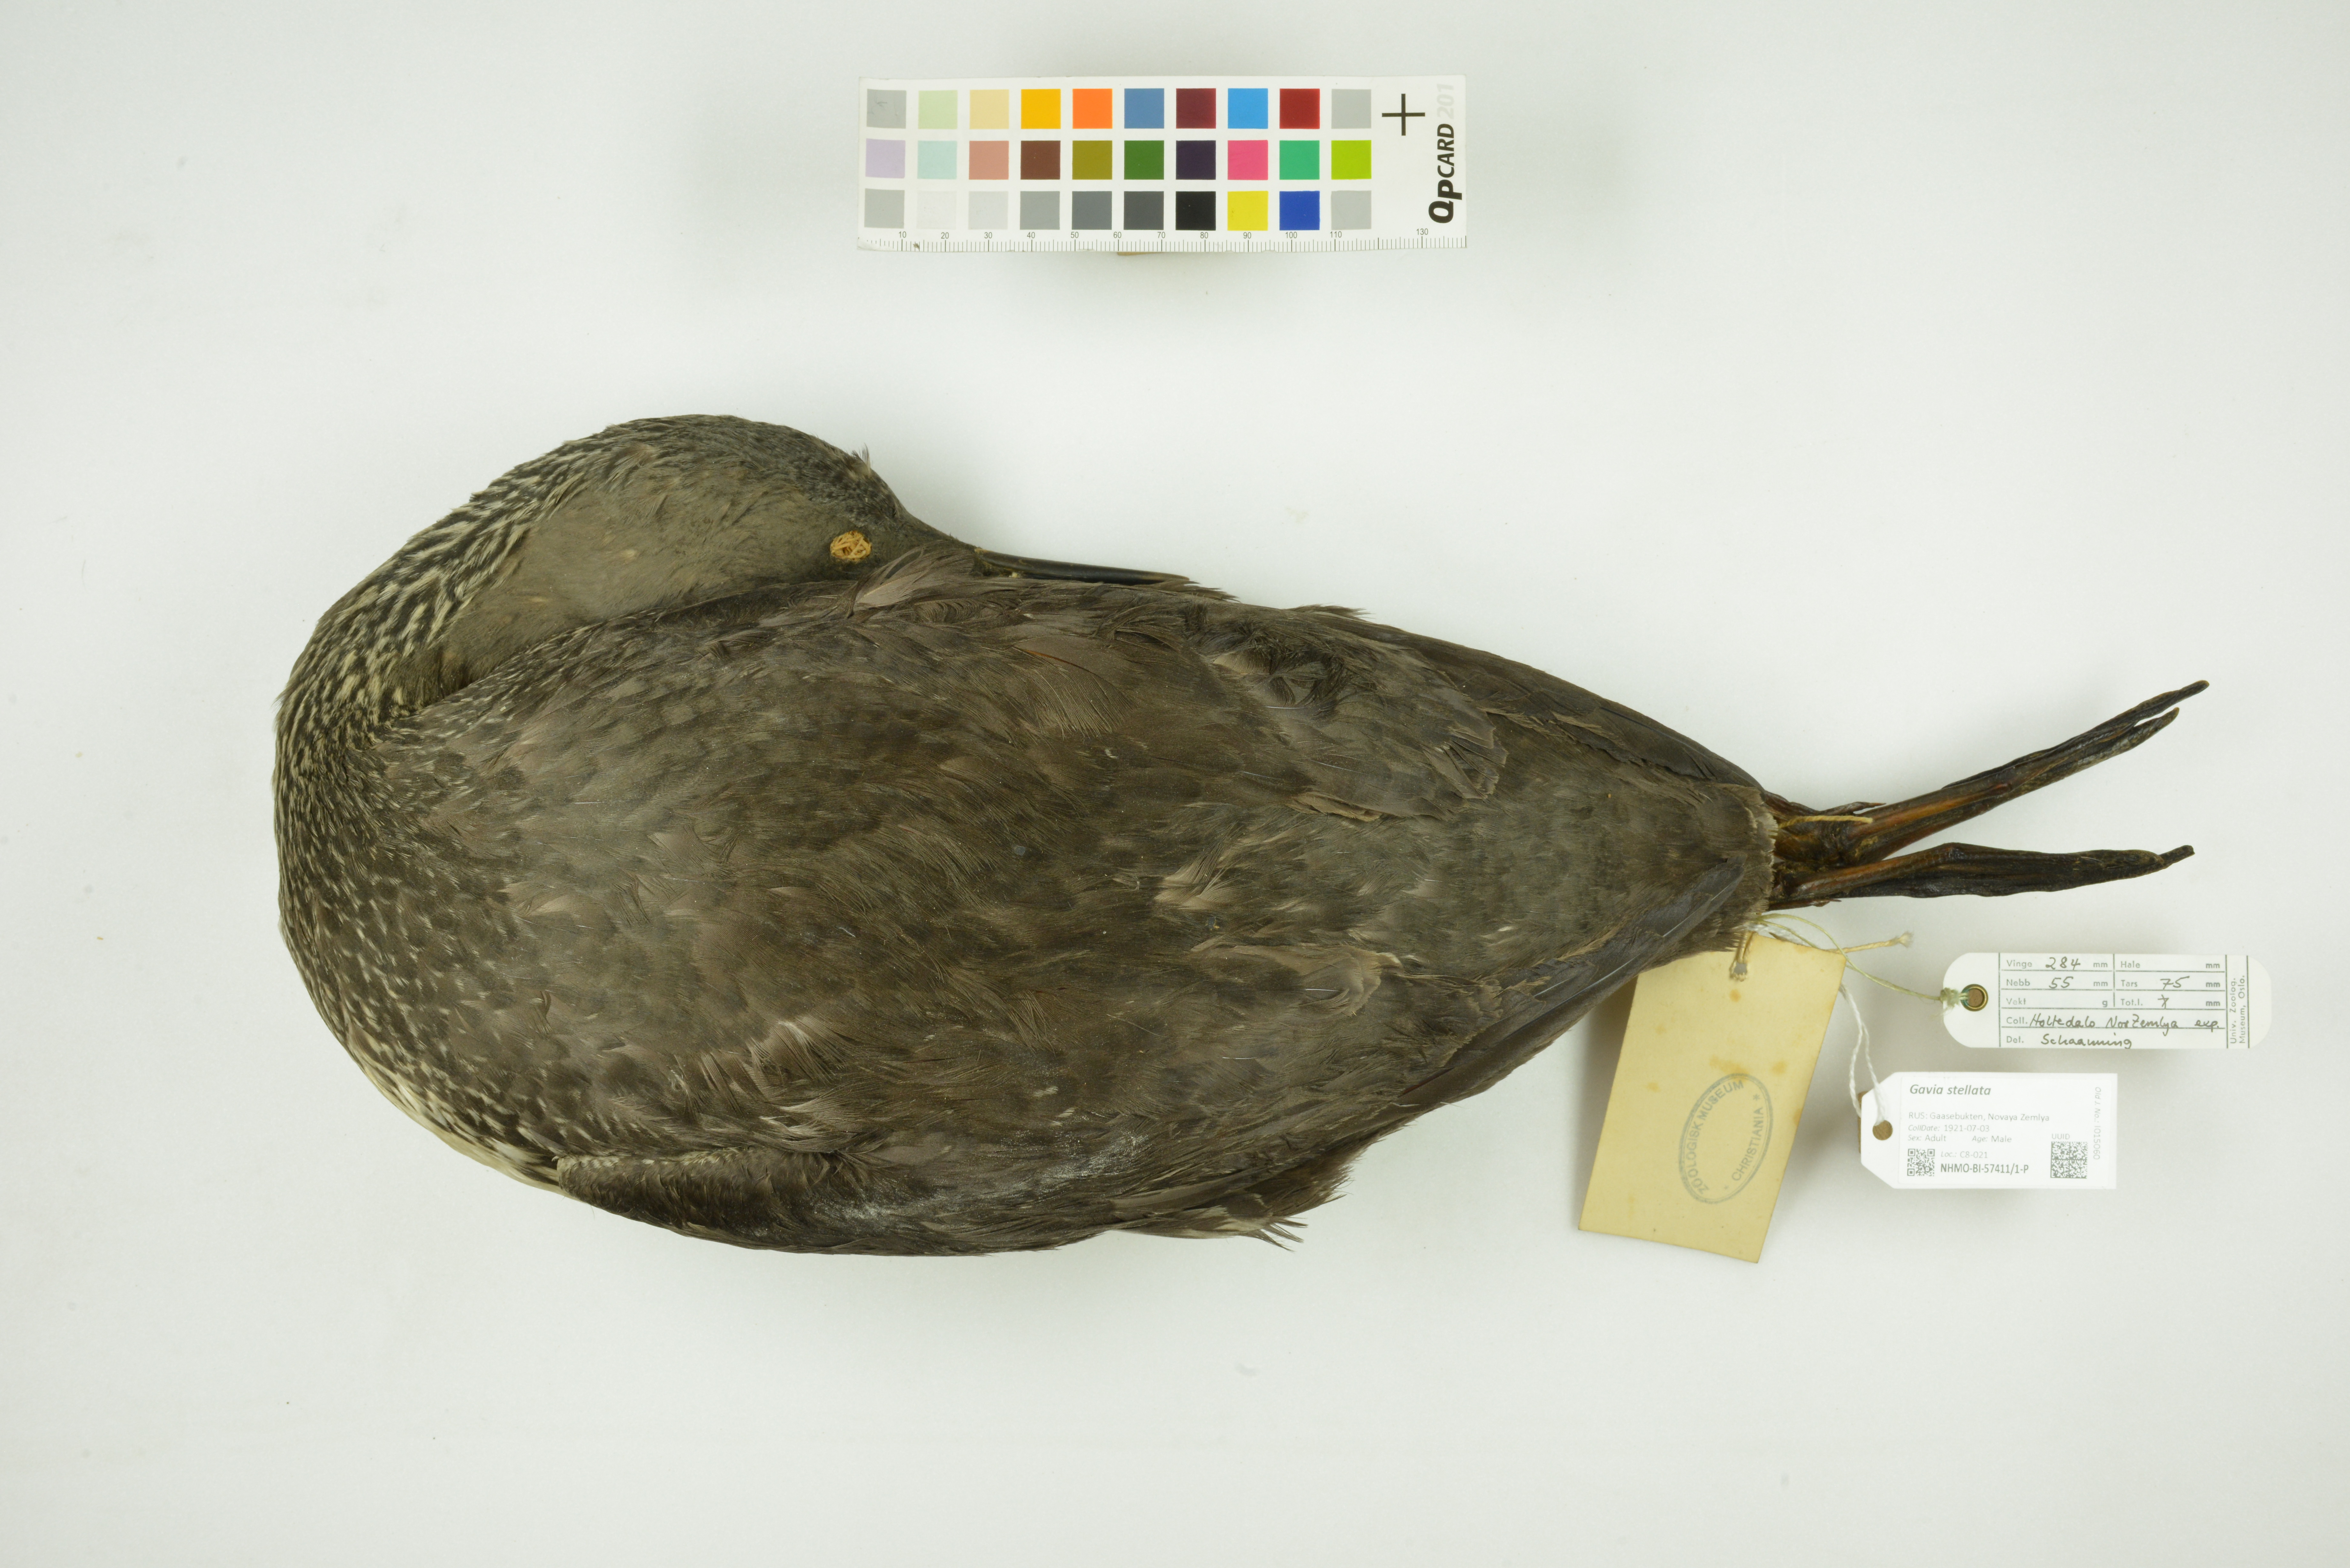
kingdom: Animalia
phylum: Chordata
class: Aves
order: Gaviiformes
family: Gaviidae
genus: Gavia
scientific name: Gavia stellata
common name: Red-throated loon
